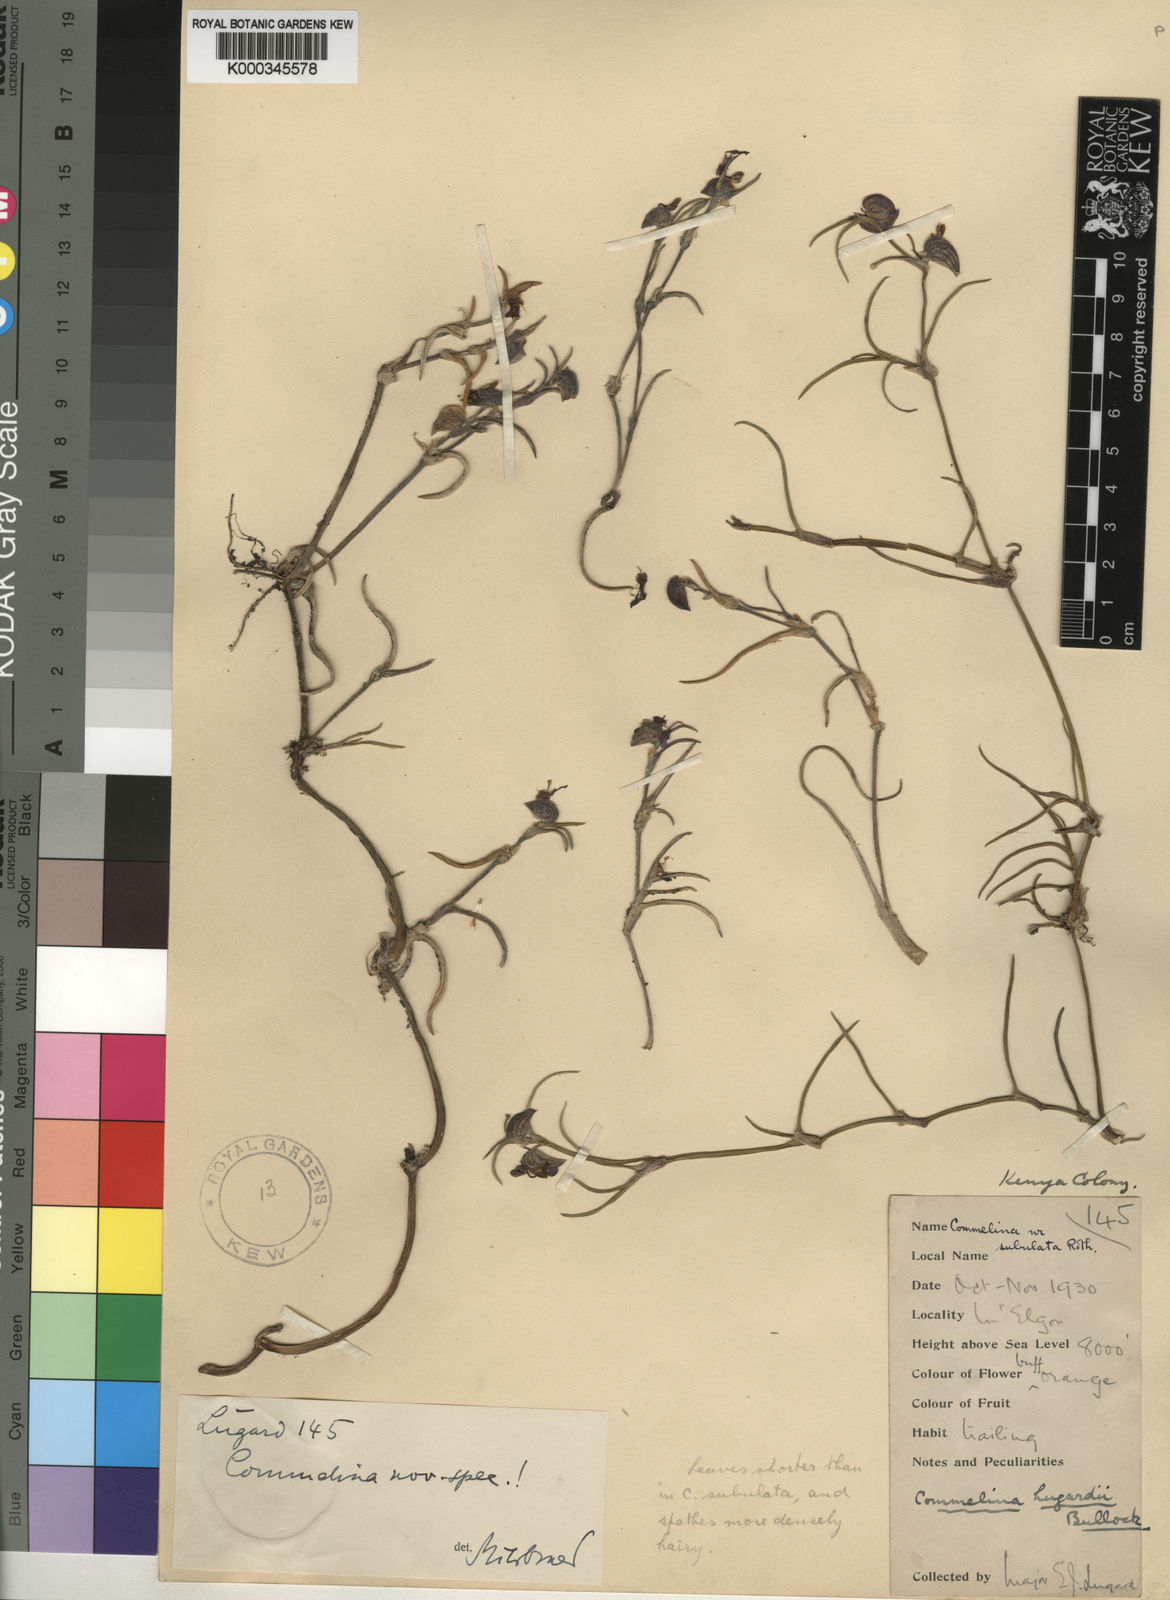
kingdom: Plantae
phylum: Tracheophyta
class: Liliopsida
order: Commelinales
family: Commelinaceae
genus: Commelina
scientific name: Commelina purpurea
